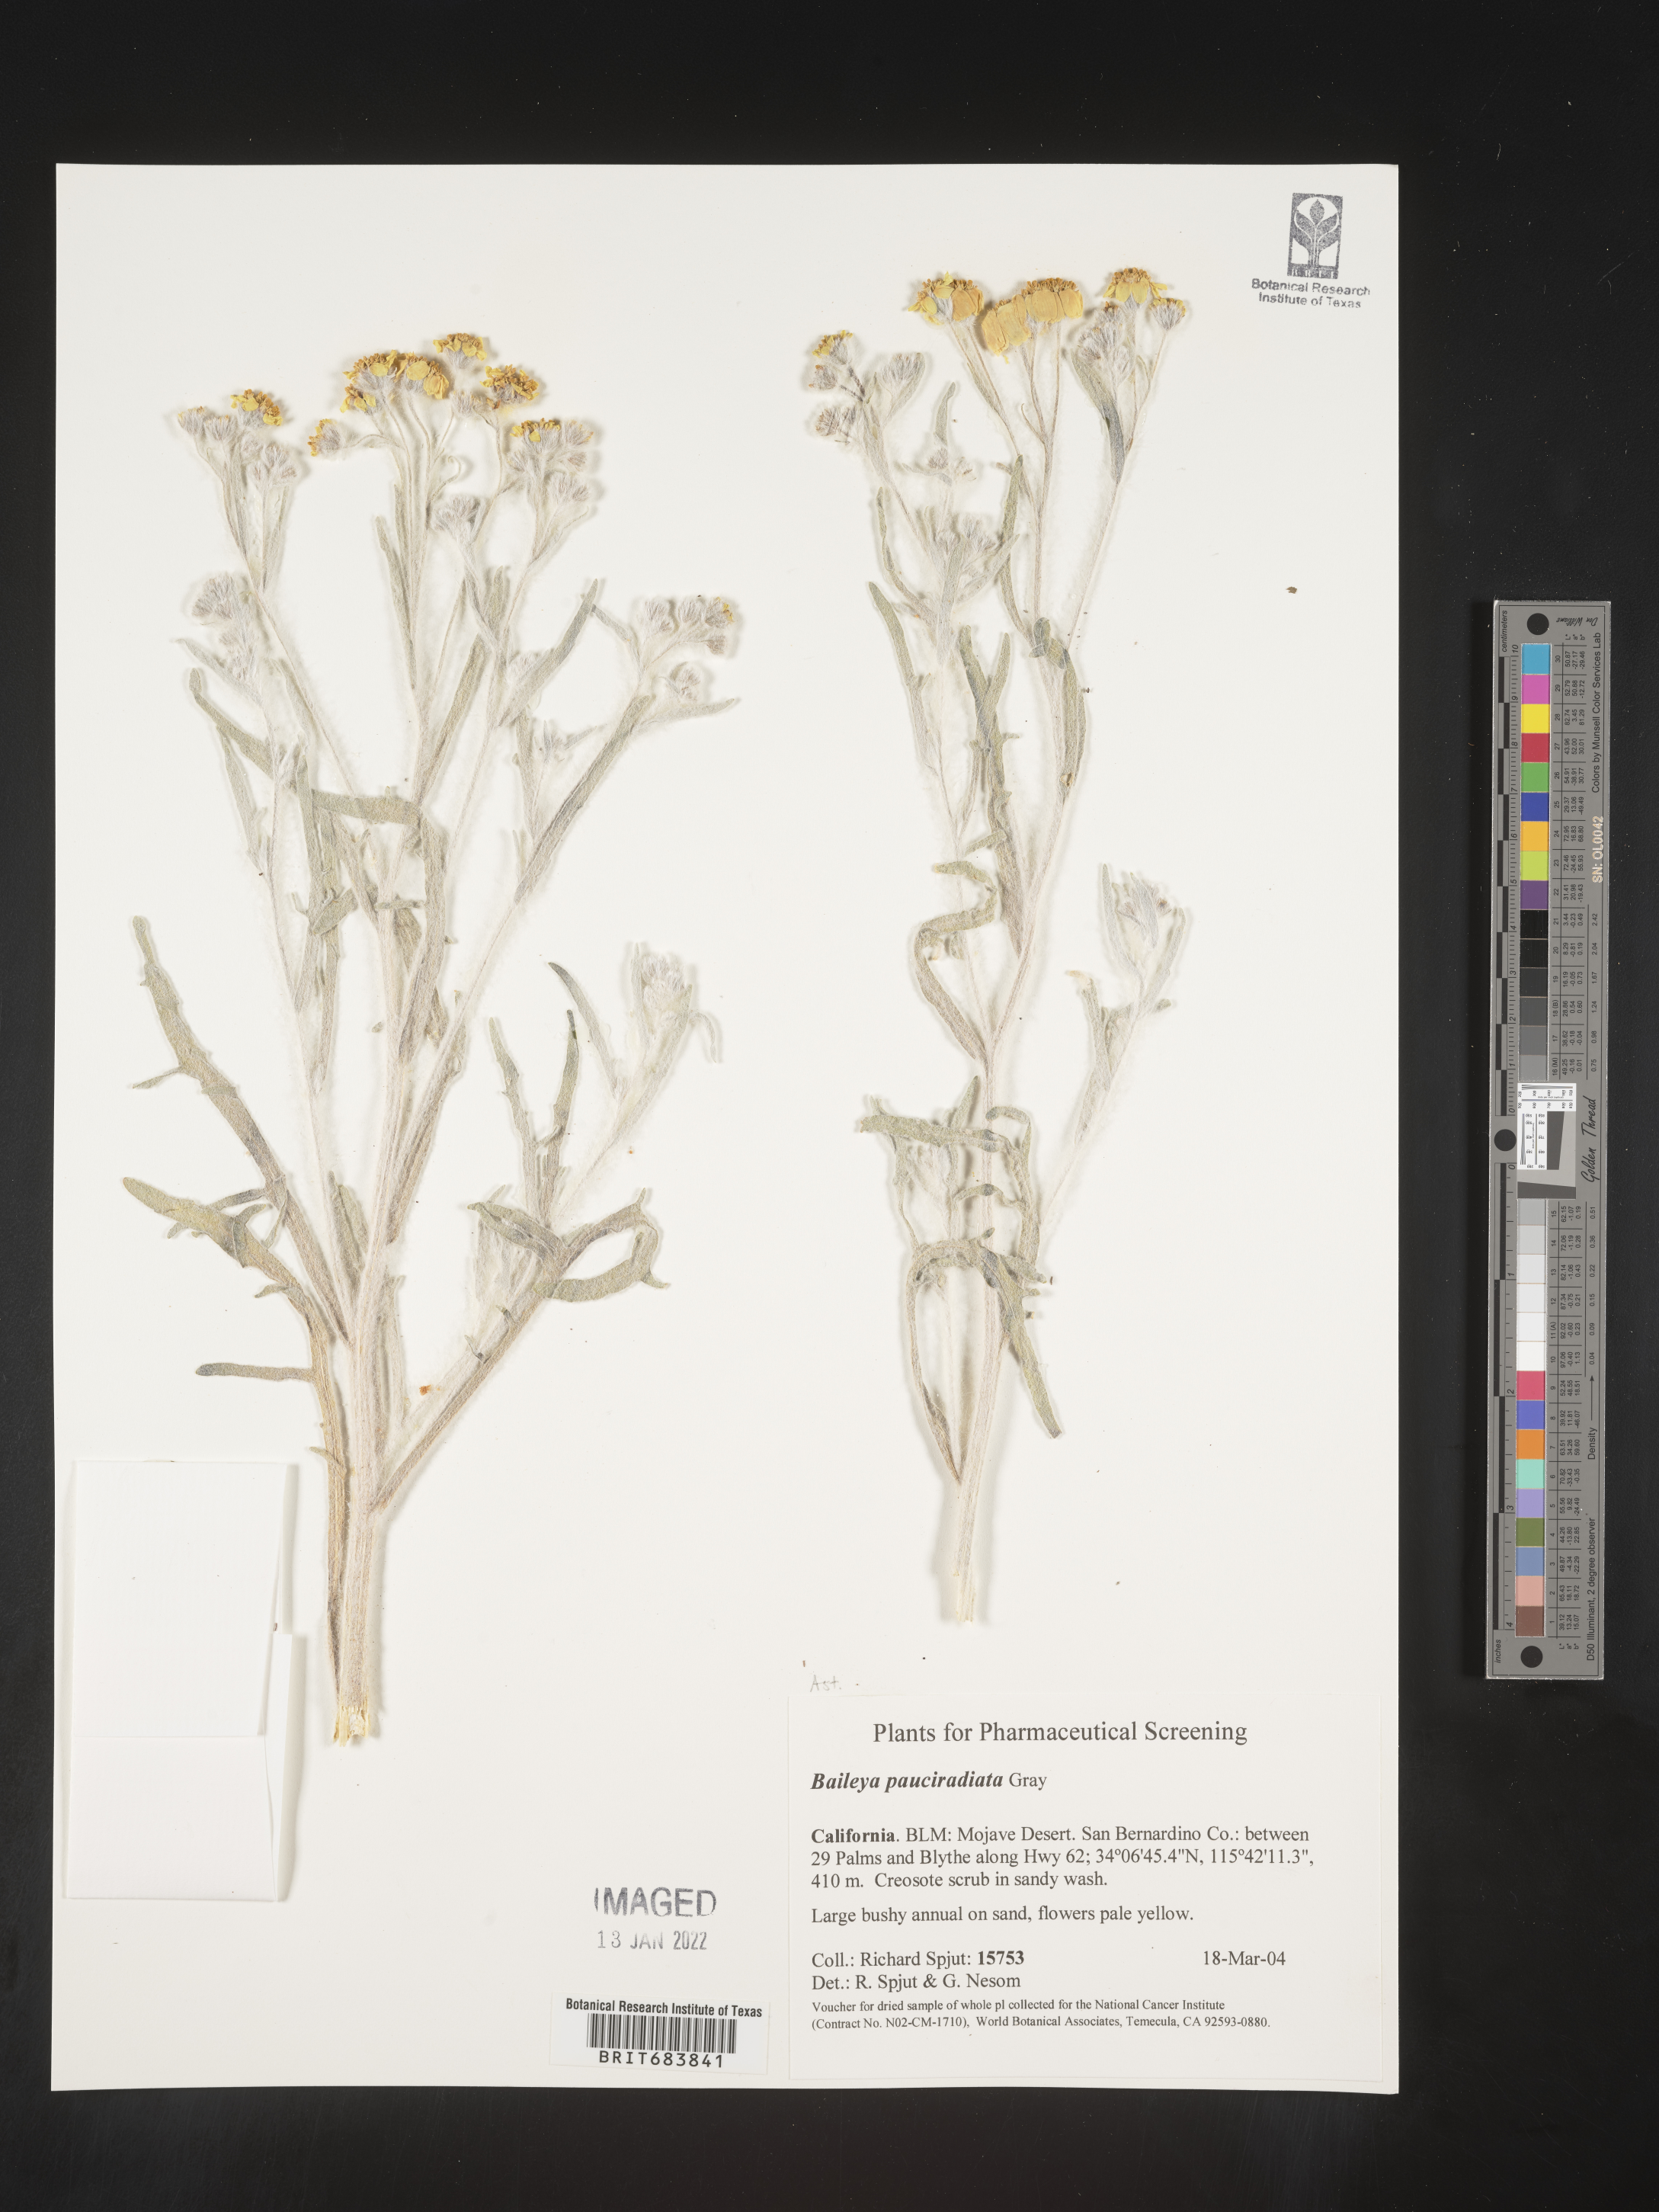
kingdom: Plantae
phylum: Tracheophyta
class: Magnoliopsida
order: Asterales
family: Asteraceae
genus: Baileya
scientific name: Baileya pleniradiata
